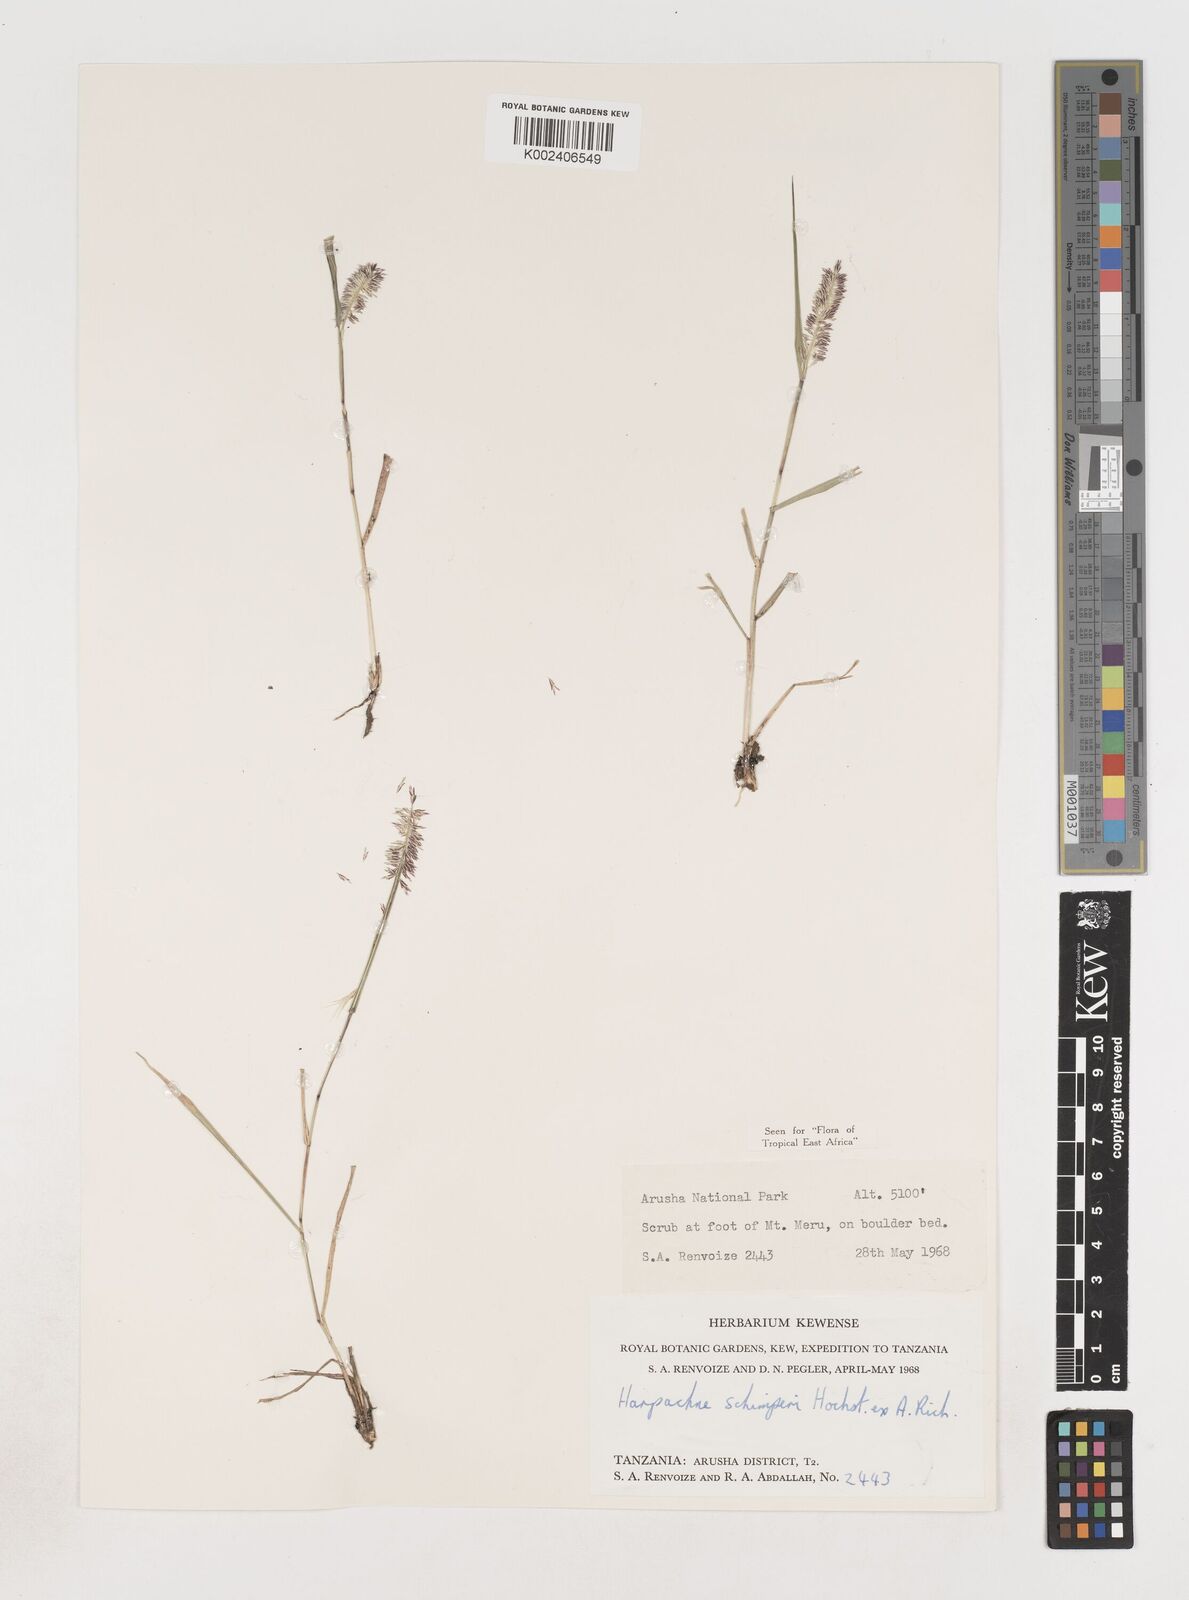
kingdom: Plantae
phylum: Tracheophyta
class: Liliopsida
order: Poales
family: Poaceae
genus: Harpachne
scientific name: Harpachne schimperi
